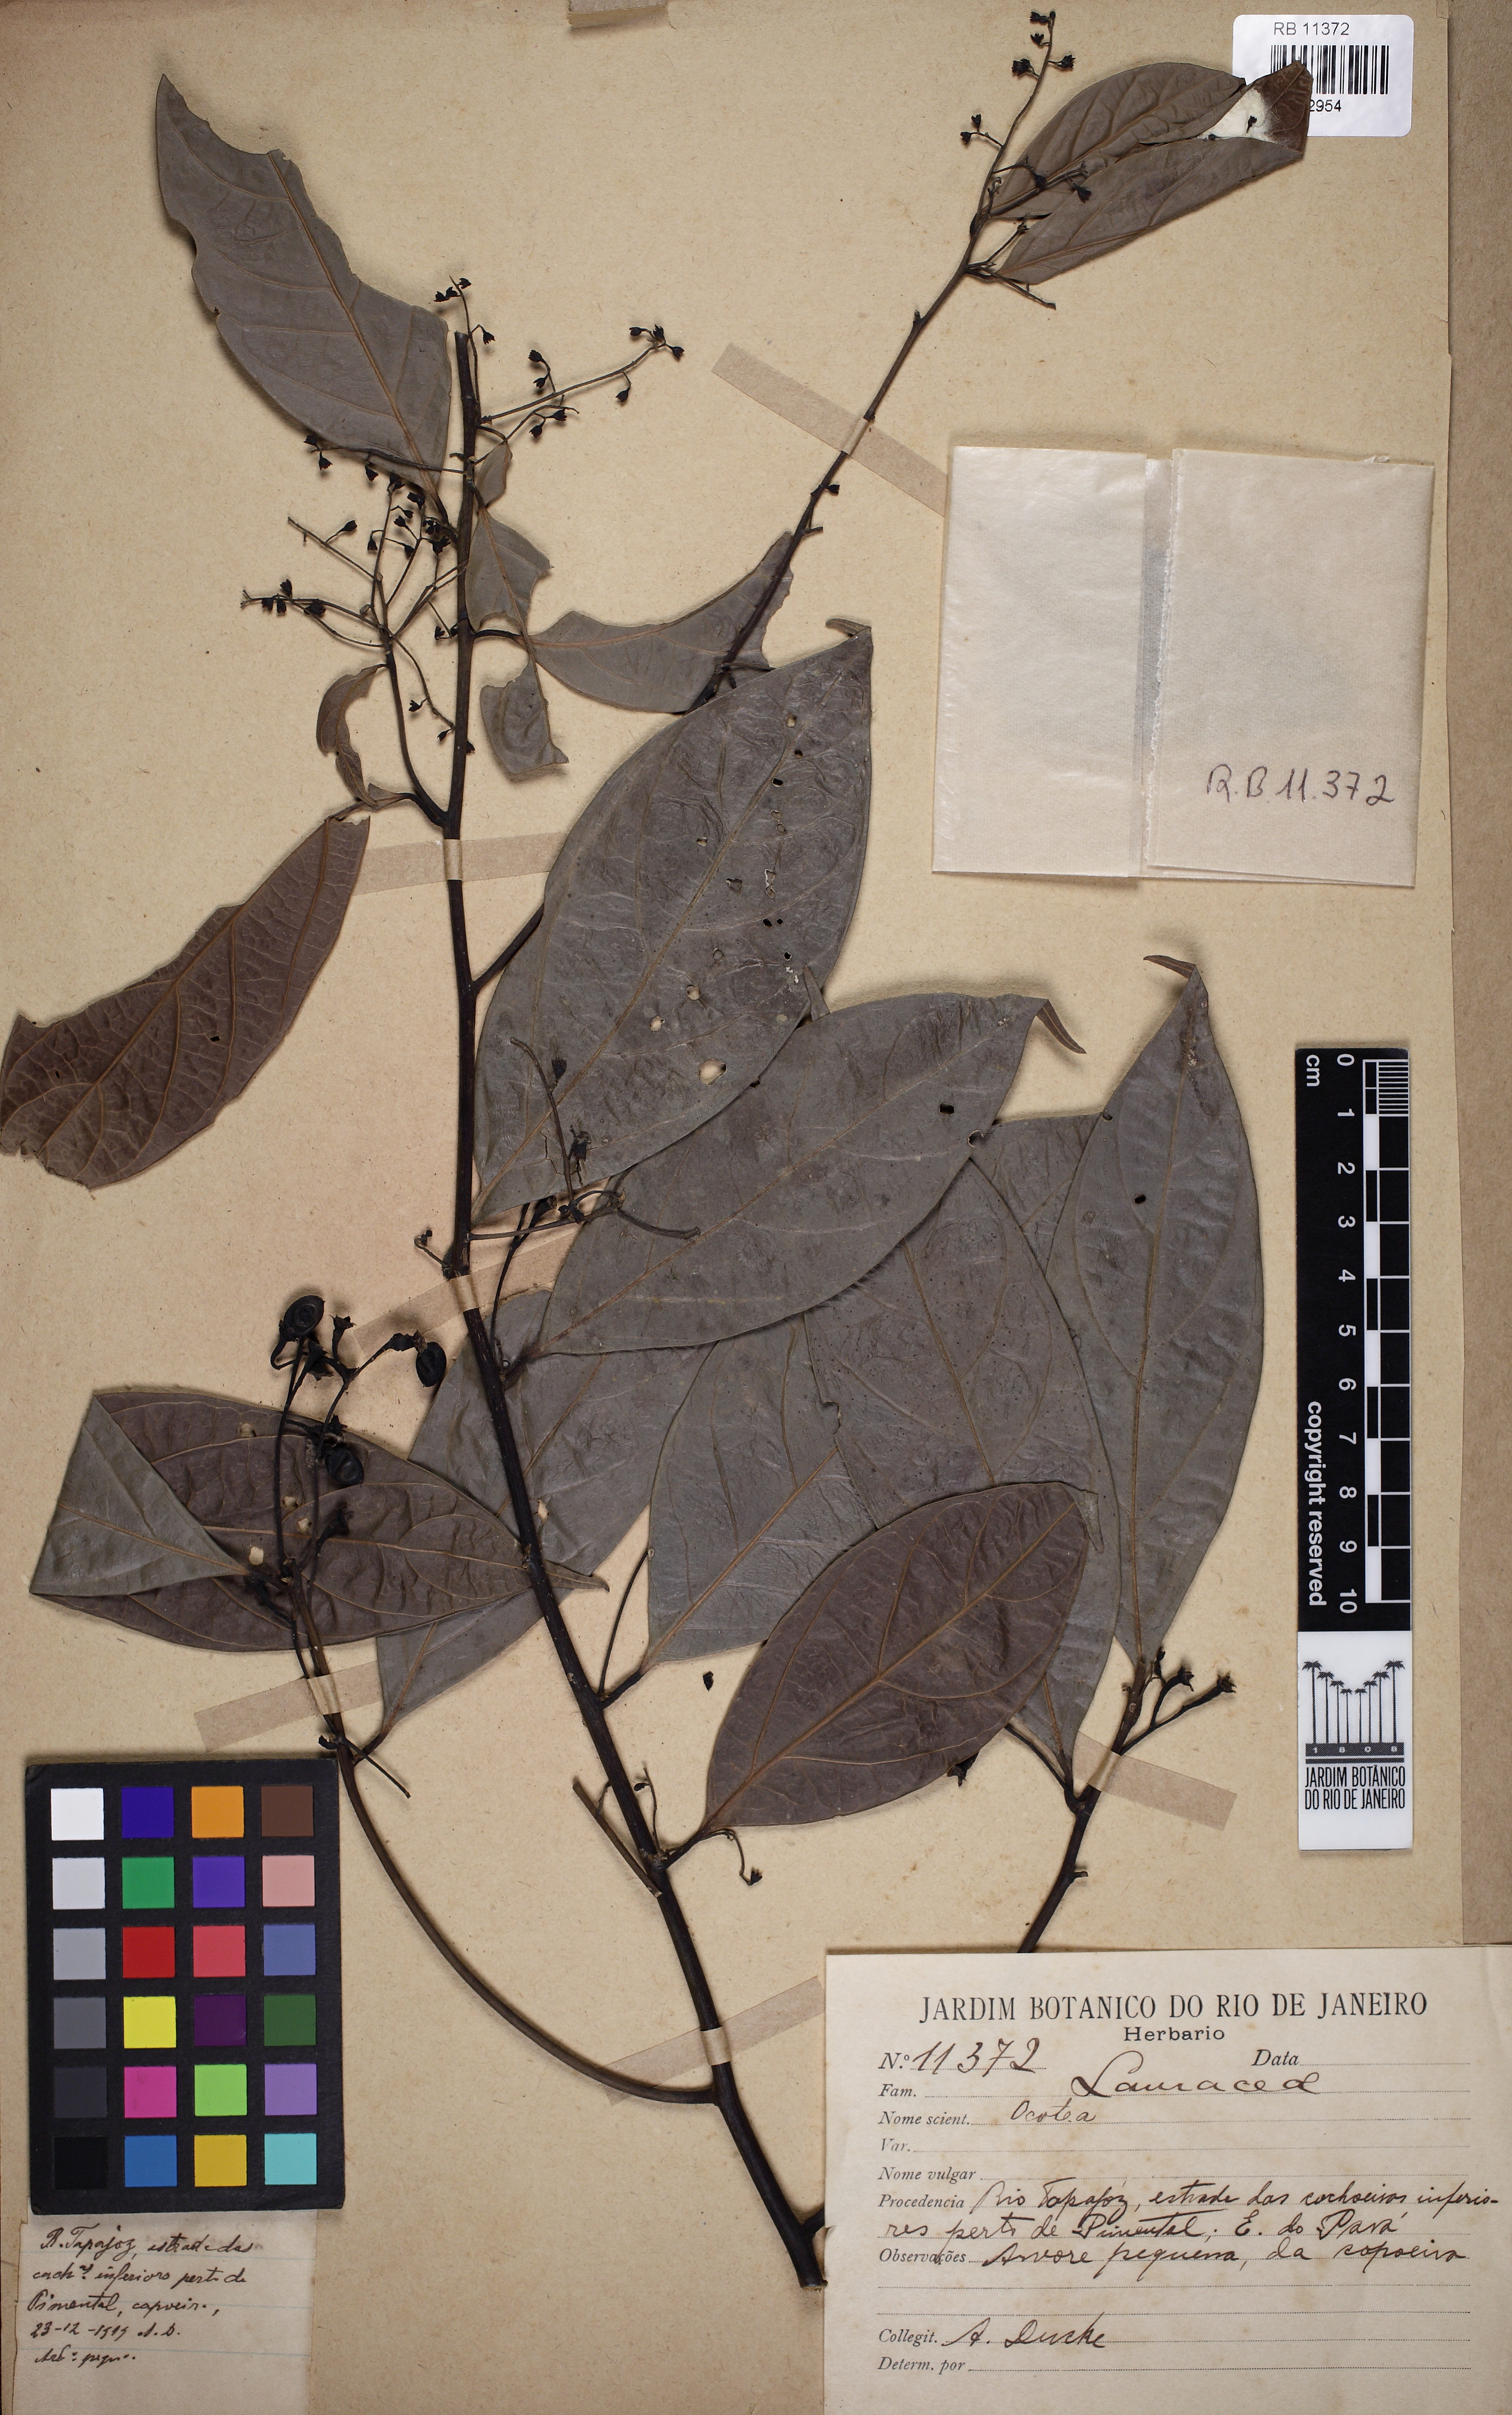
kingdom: Plantae
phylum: Tracheophyta
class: Magnoliopsida
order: Laurales
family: Lauraceae
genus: Ocotea
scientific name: Ocotea
